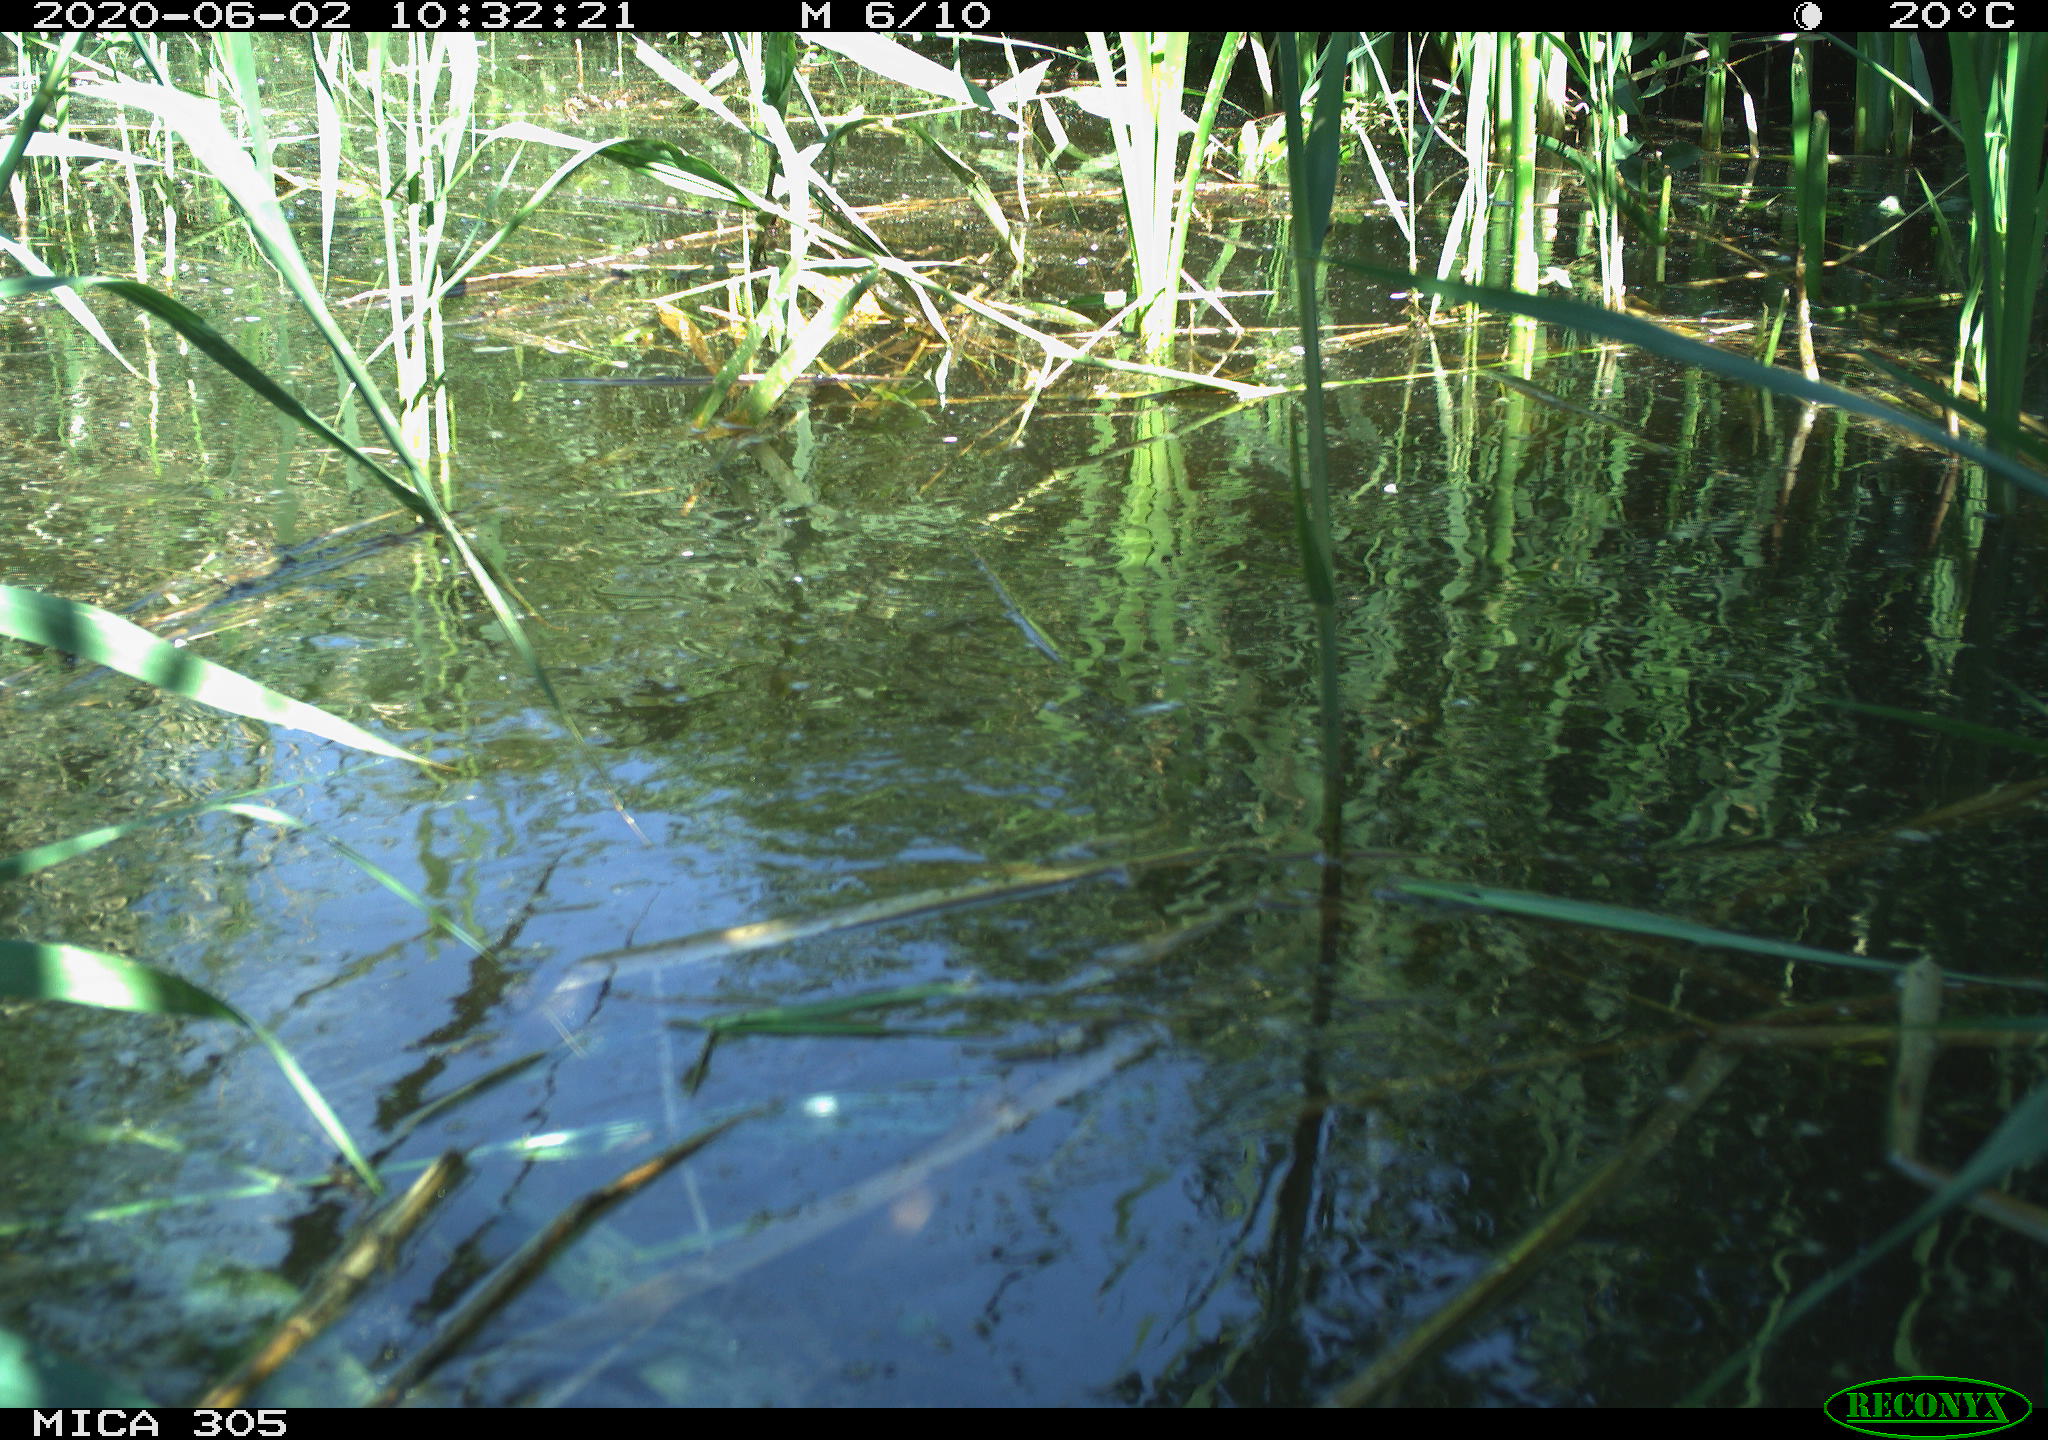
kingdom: Animalia
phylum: Chordata
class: Aves
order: Gruiformes
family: Rallidae
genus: Gallinula
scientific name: Gallinula chloropus
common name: Common moorhen
